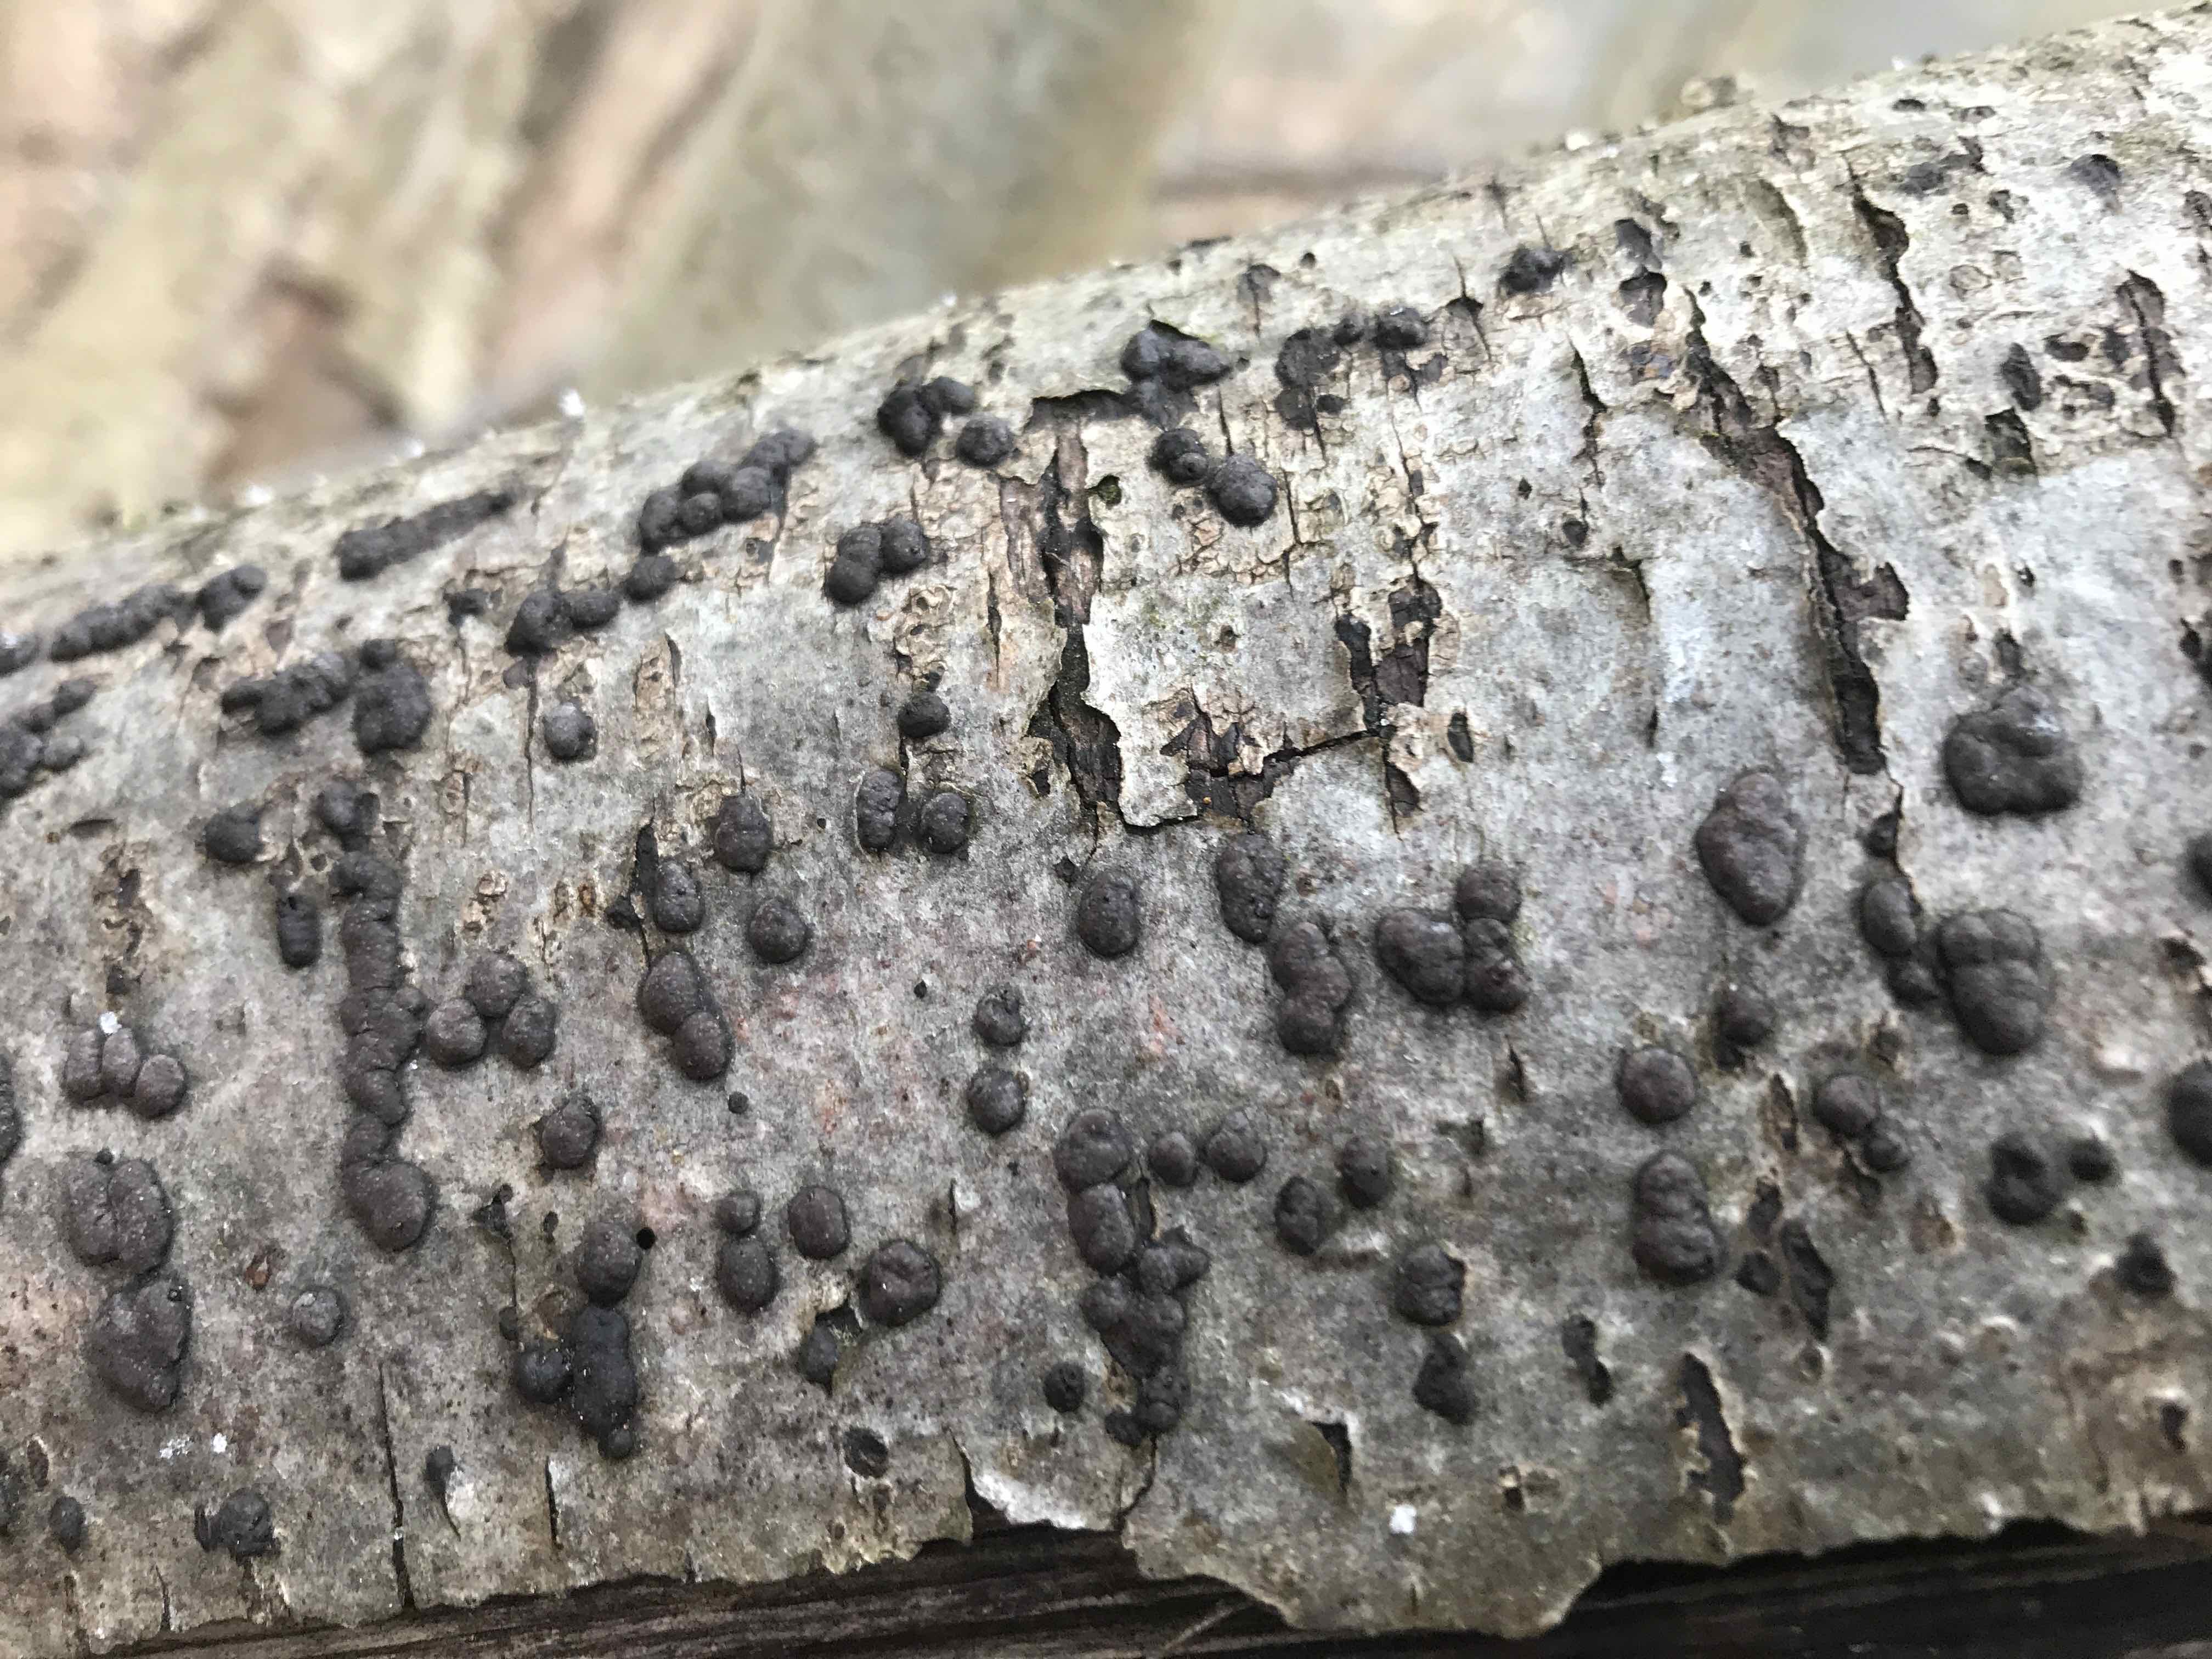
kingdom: Fungi
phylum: Ascomycota
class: Sordariomycetes
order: Xylariales
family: Hypoxylaceae
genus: Hypoxylon
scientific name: Hypoxylon fuscum
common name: kegleformet kulbær
